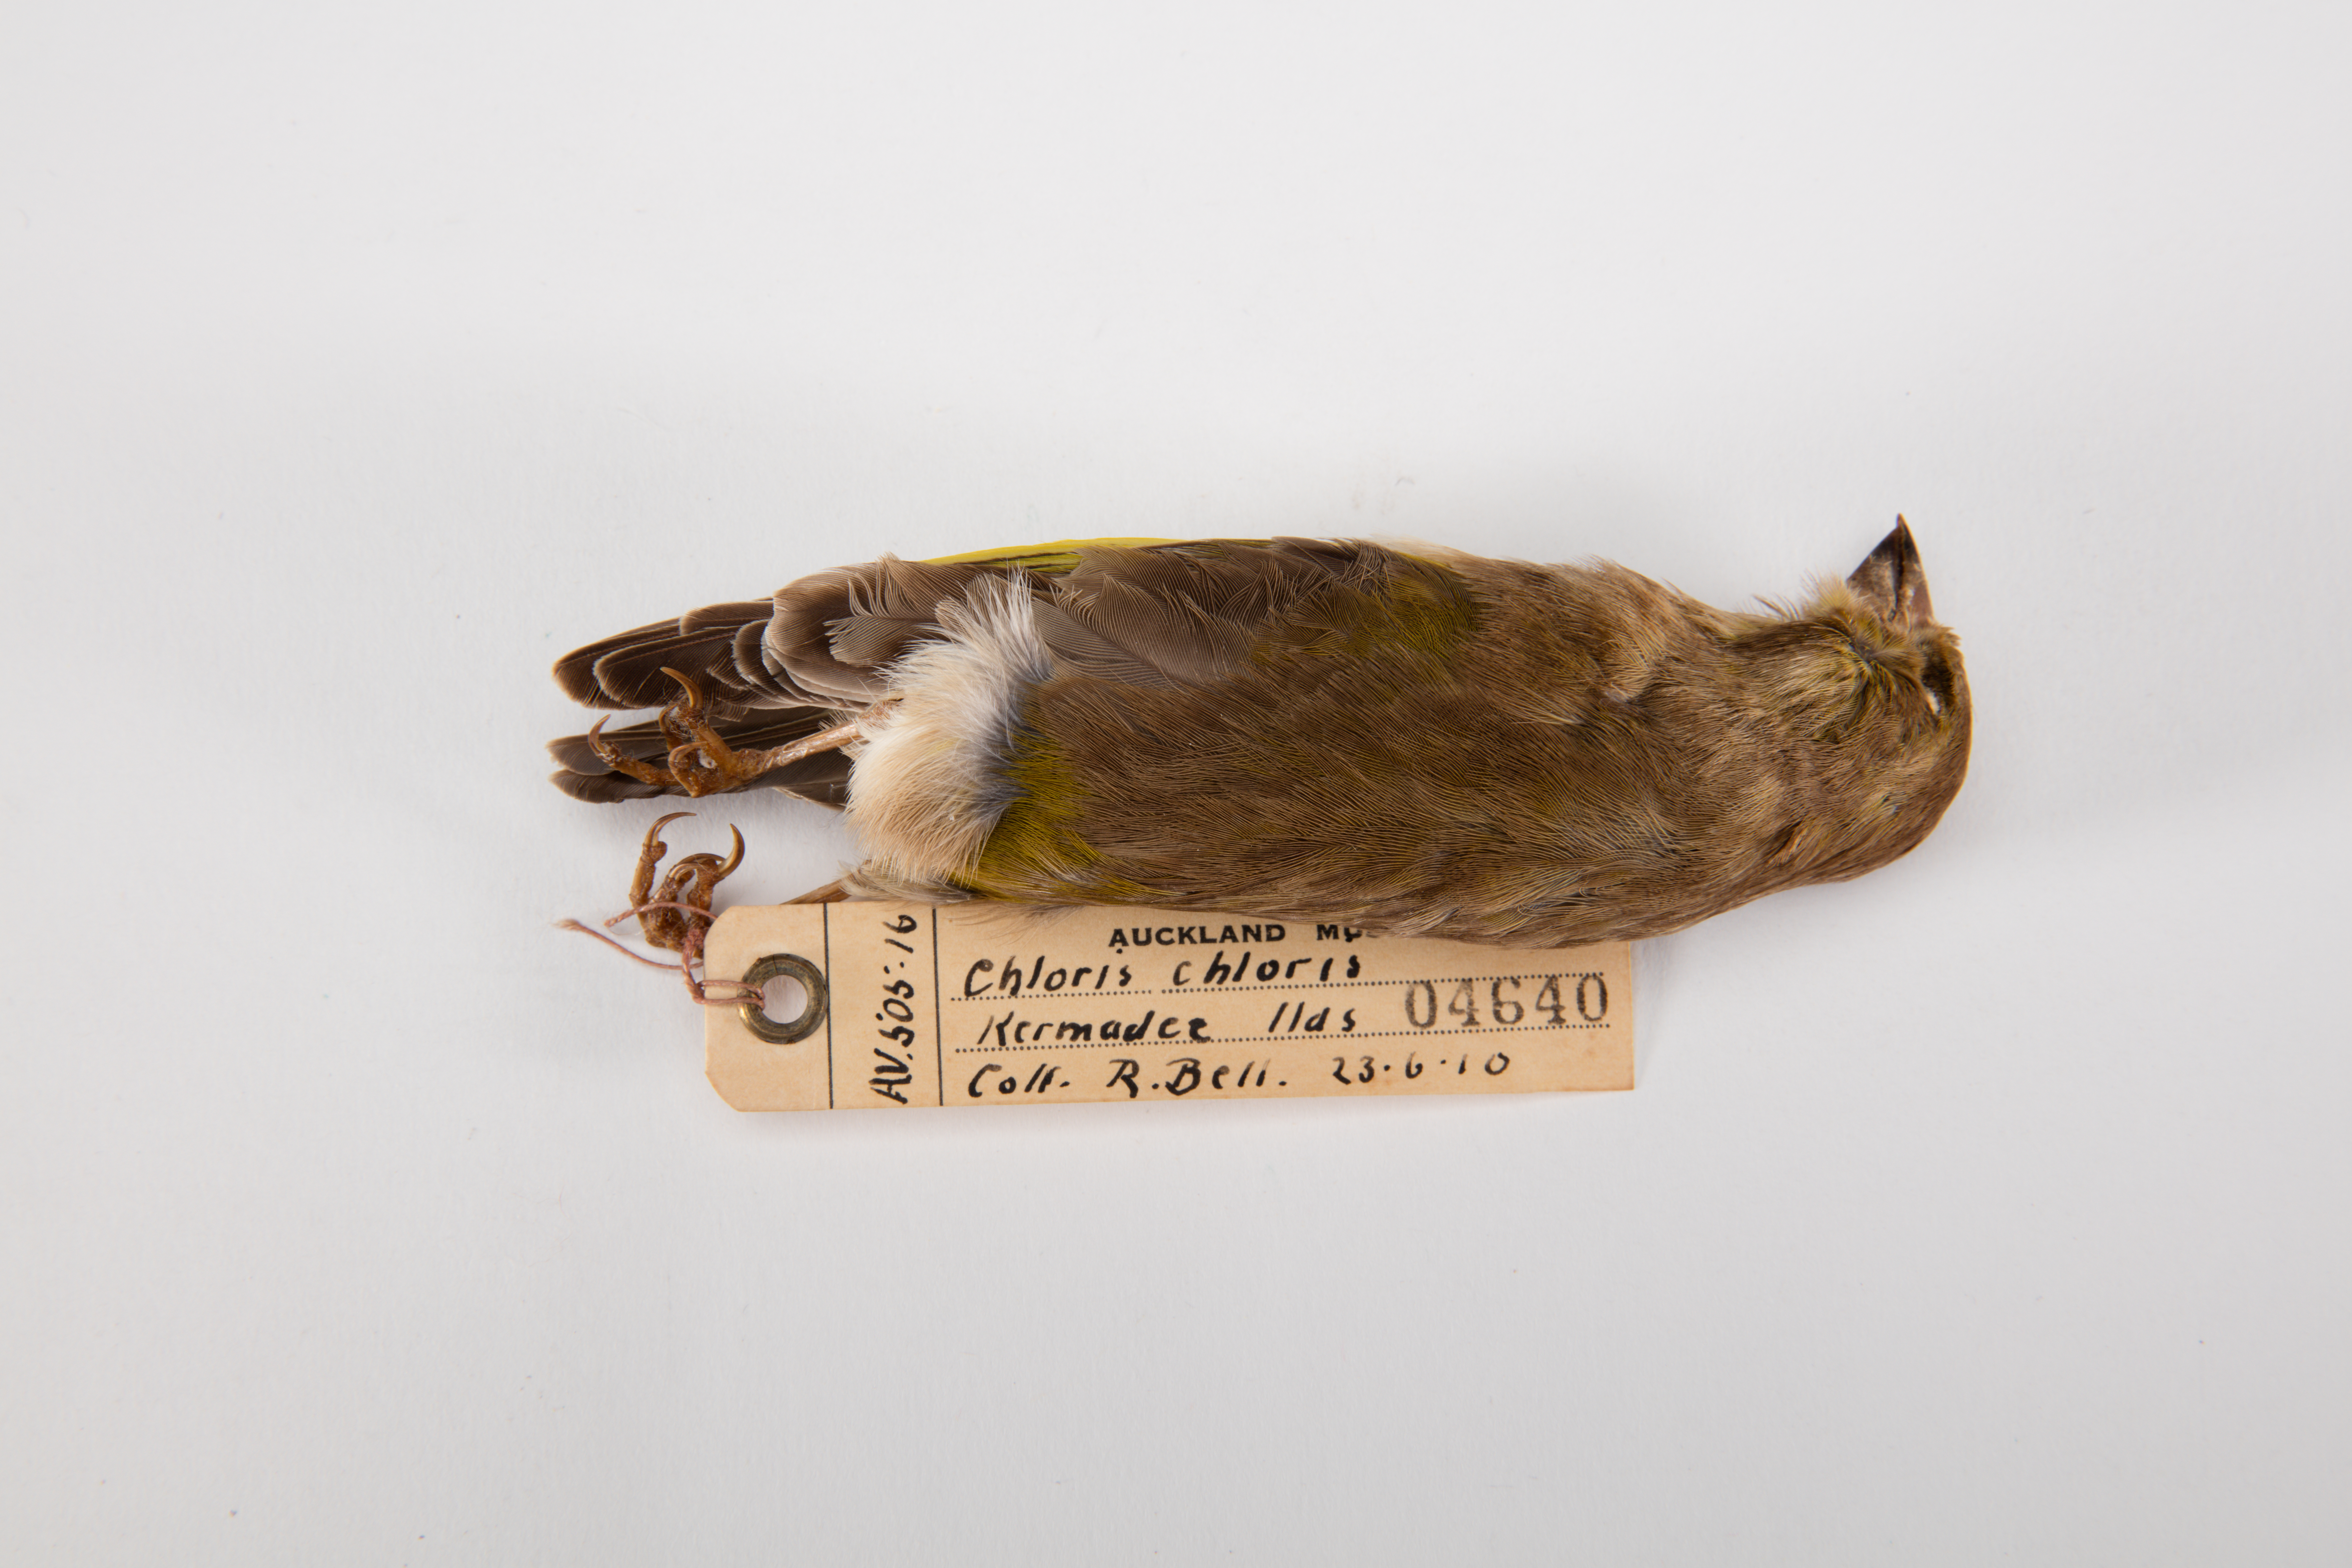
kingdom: Plantae
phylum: Tracheophyta
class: Liliopsida
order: Poales
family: Poaceae
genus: Chloris
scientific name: Chloris chloris
